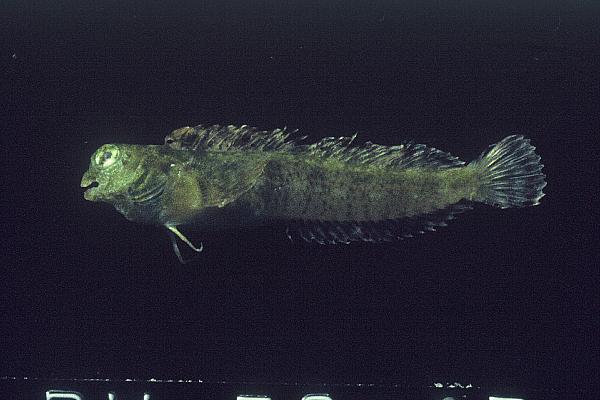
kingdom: Animalia
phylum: Chordata
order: Perciformes
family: Tripterygiidae
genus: Enneapterygius
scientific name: Enneapterygius
